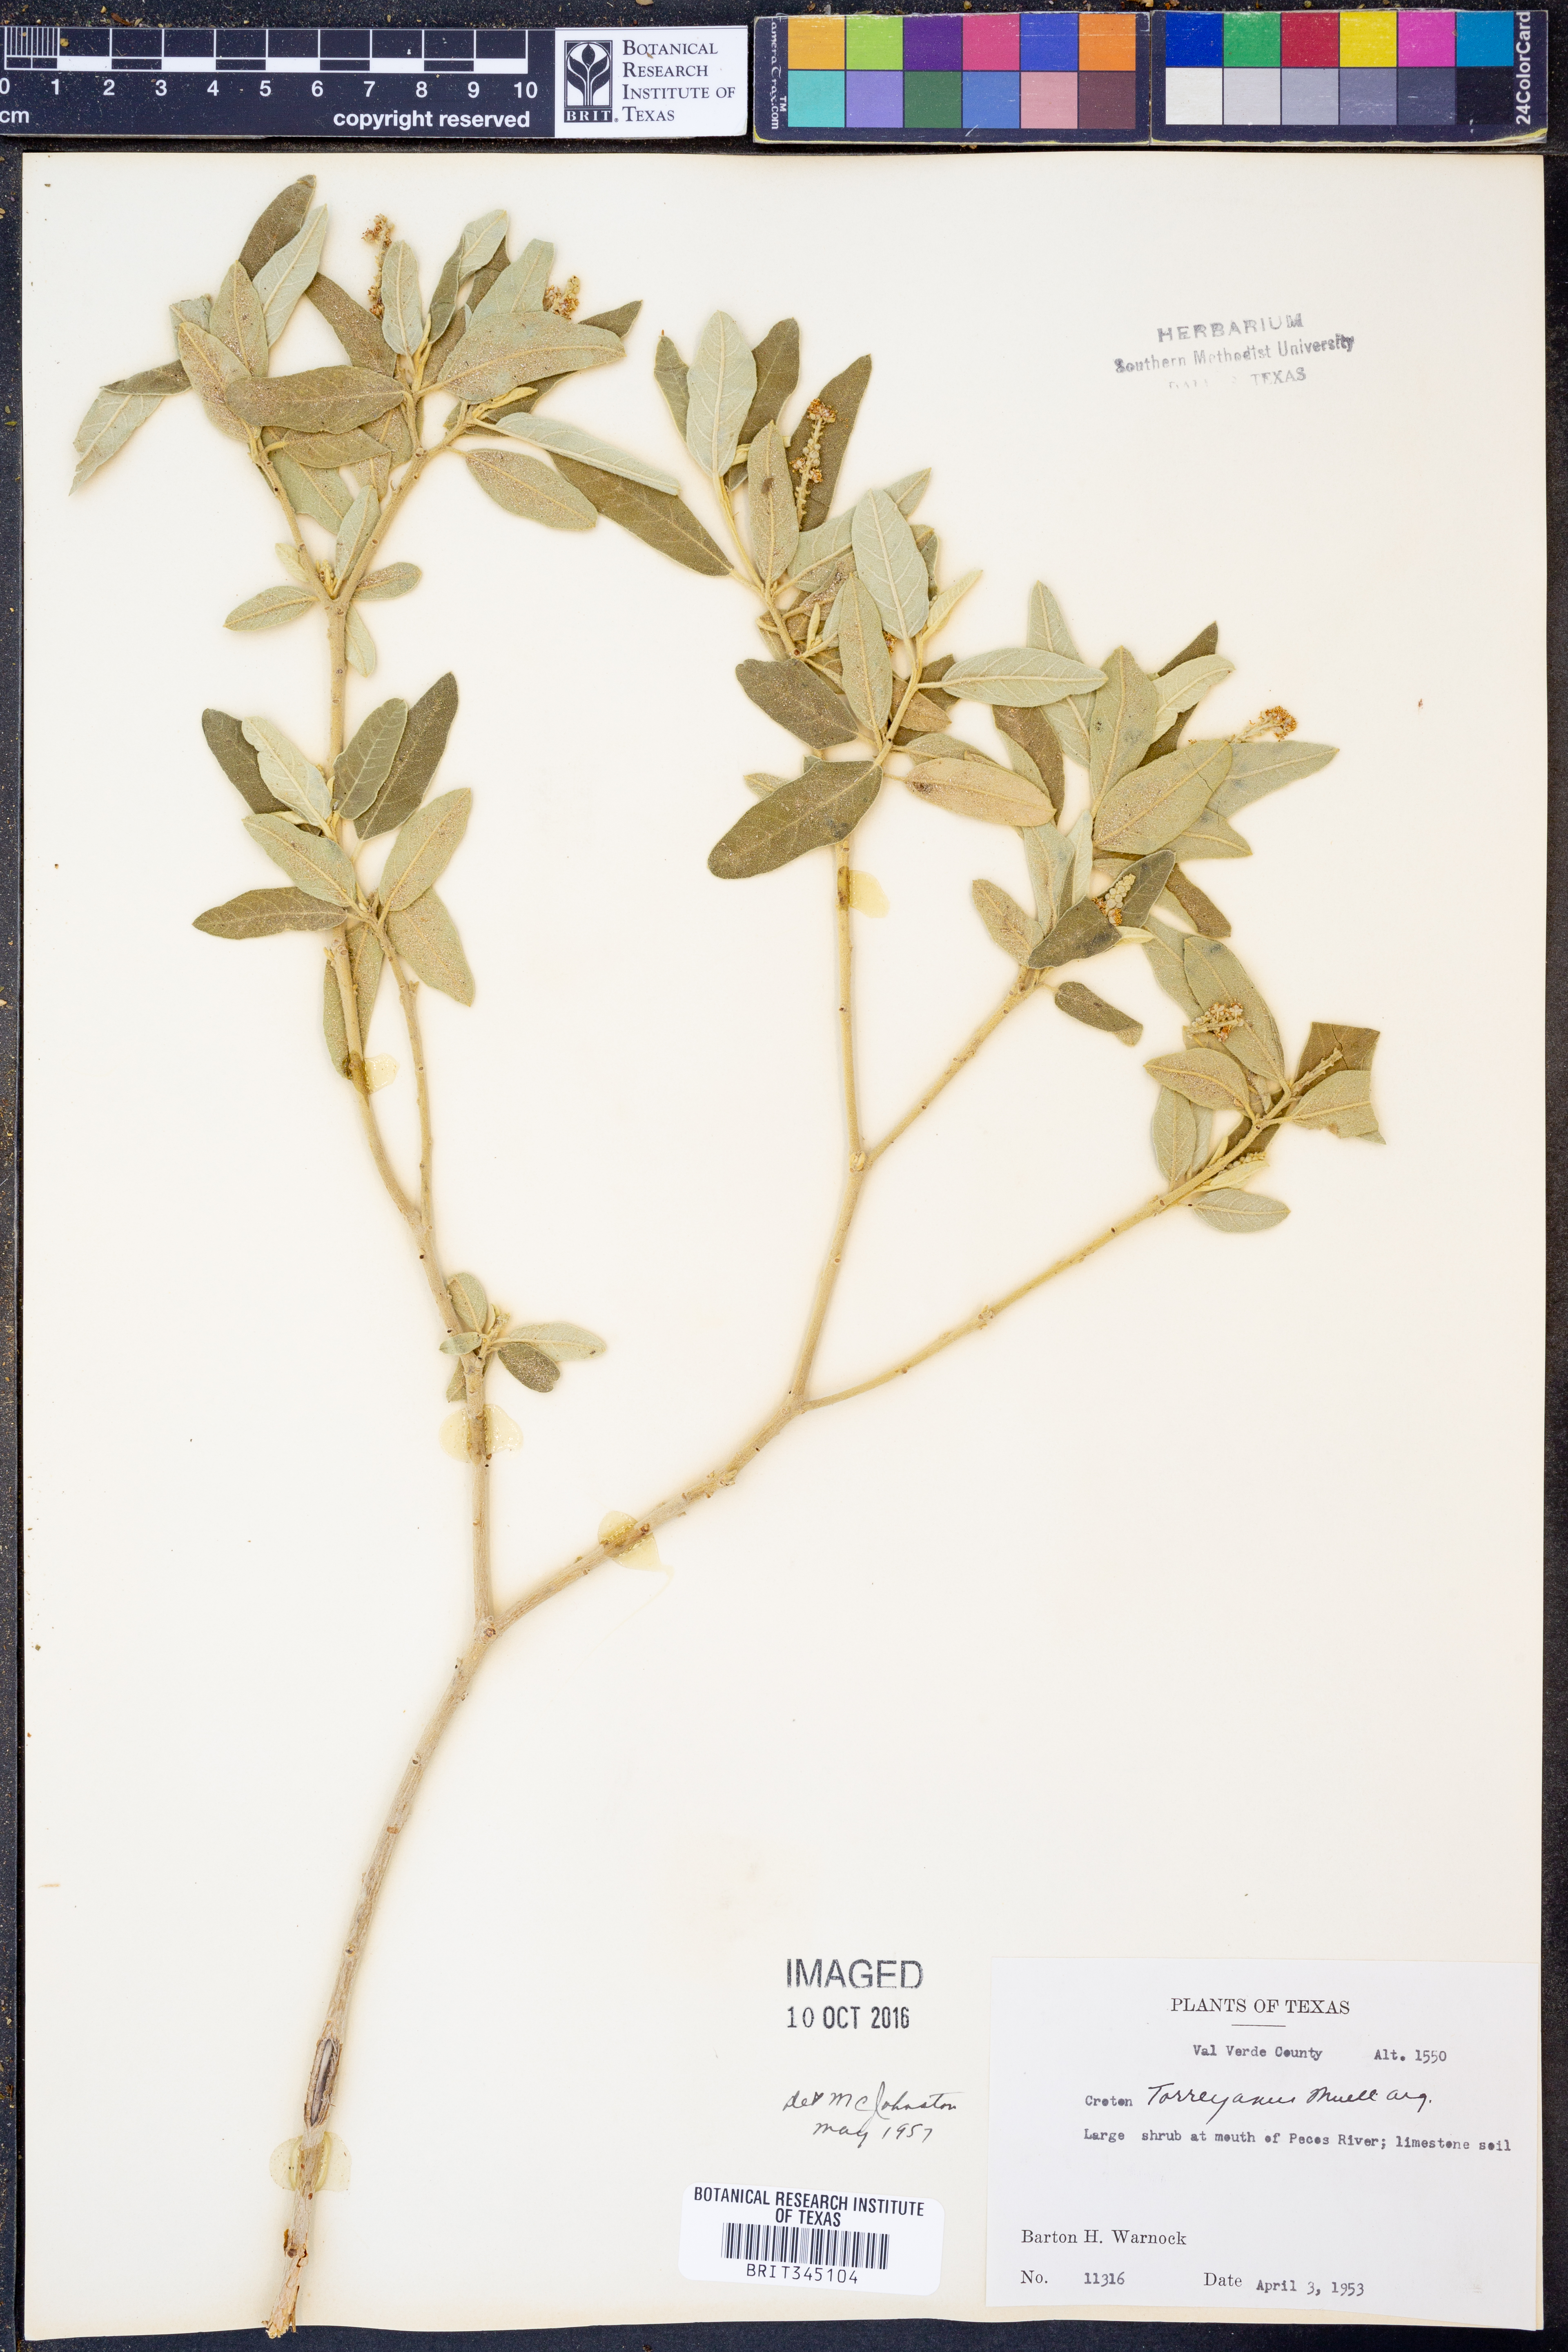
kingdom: Plantae
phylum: Tracheophyta
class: Magnoliopsida
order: Malpighiales
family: Euphorbiaceae
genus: Croton
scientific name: Croton incanus
